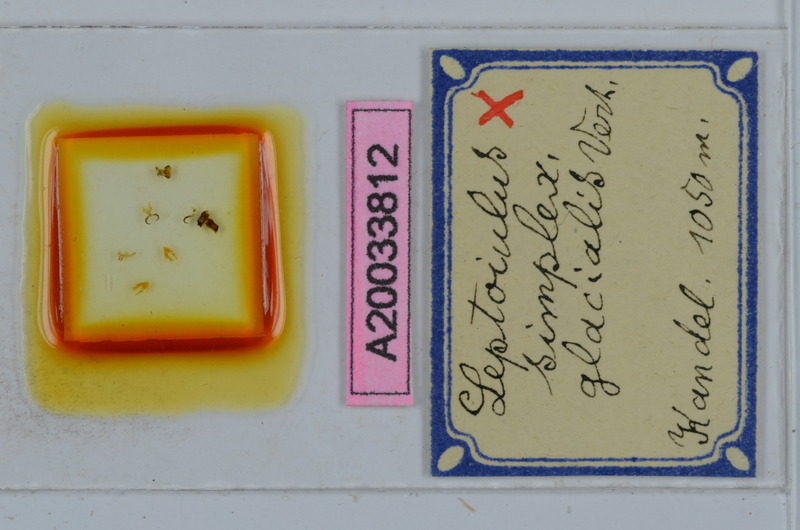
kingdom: Animalia
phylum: Arthropoda
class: Diplopoda
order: Julida
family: Julidae
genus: Leptoiulus
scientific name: Leptoiulus simplex
